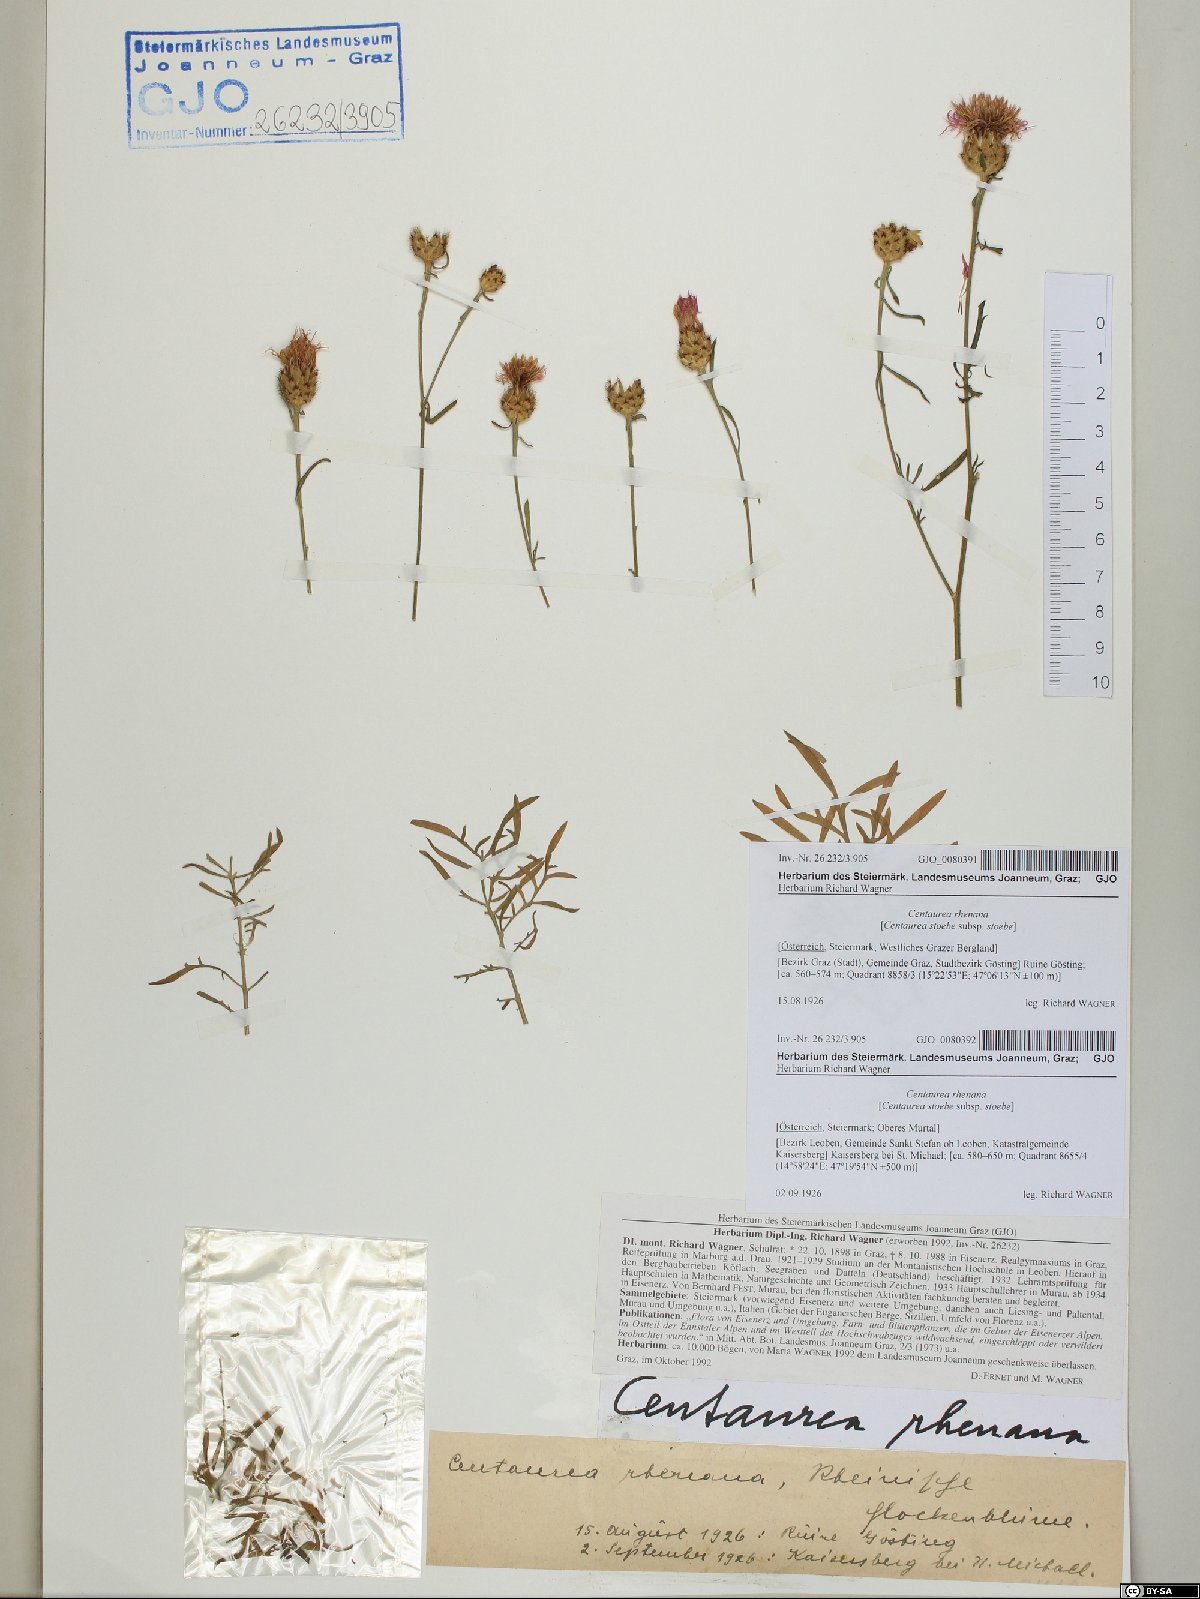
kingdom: Plantae
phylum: Tracheophyta
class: Magnoliopsida
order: Asterales
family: Asteraceae
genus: Centaurea
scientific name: Centaurea stoebe
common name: Spotted knapweed
